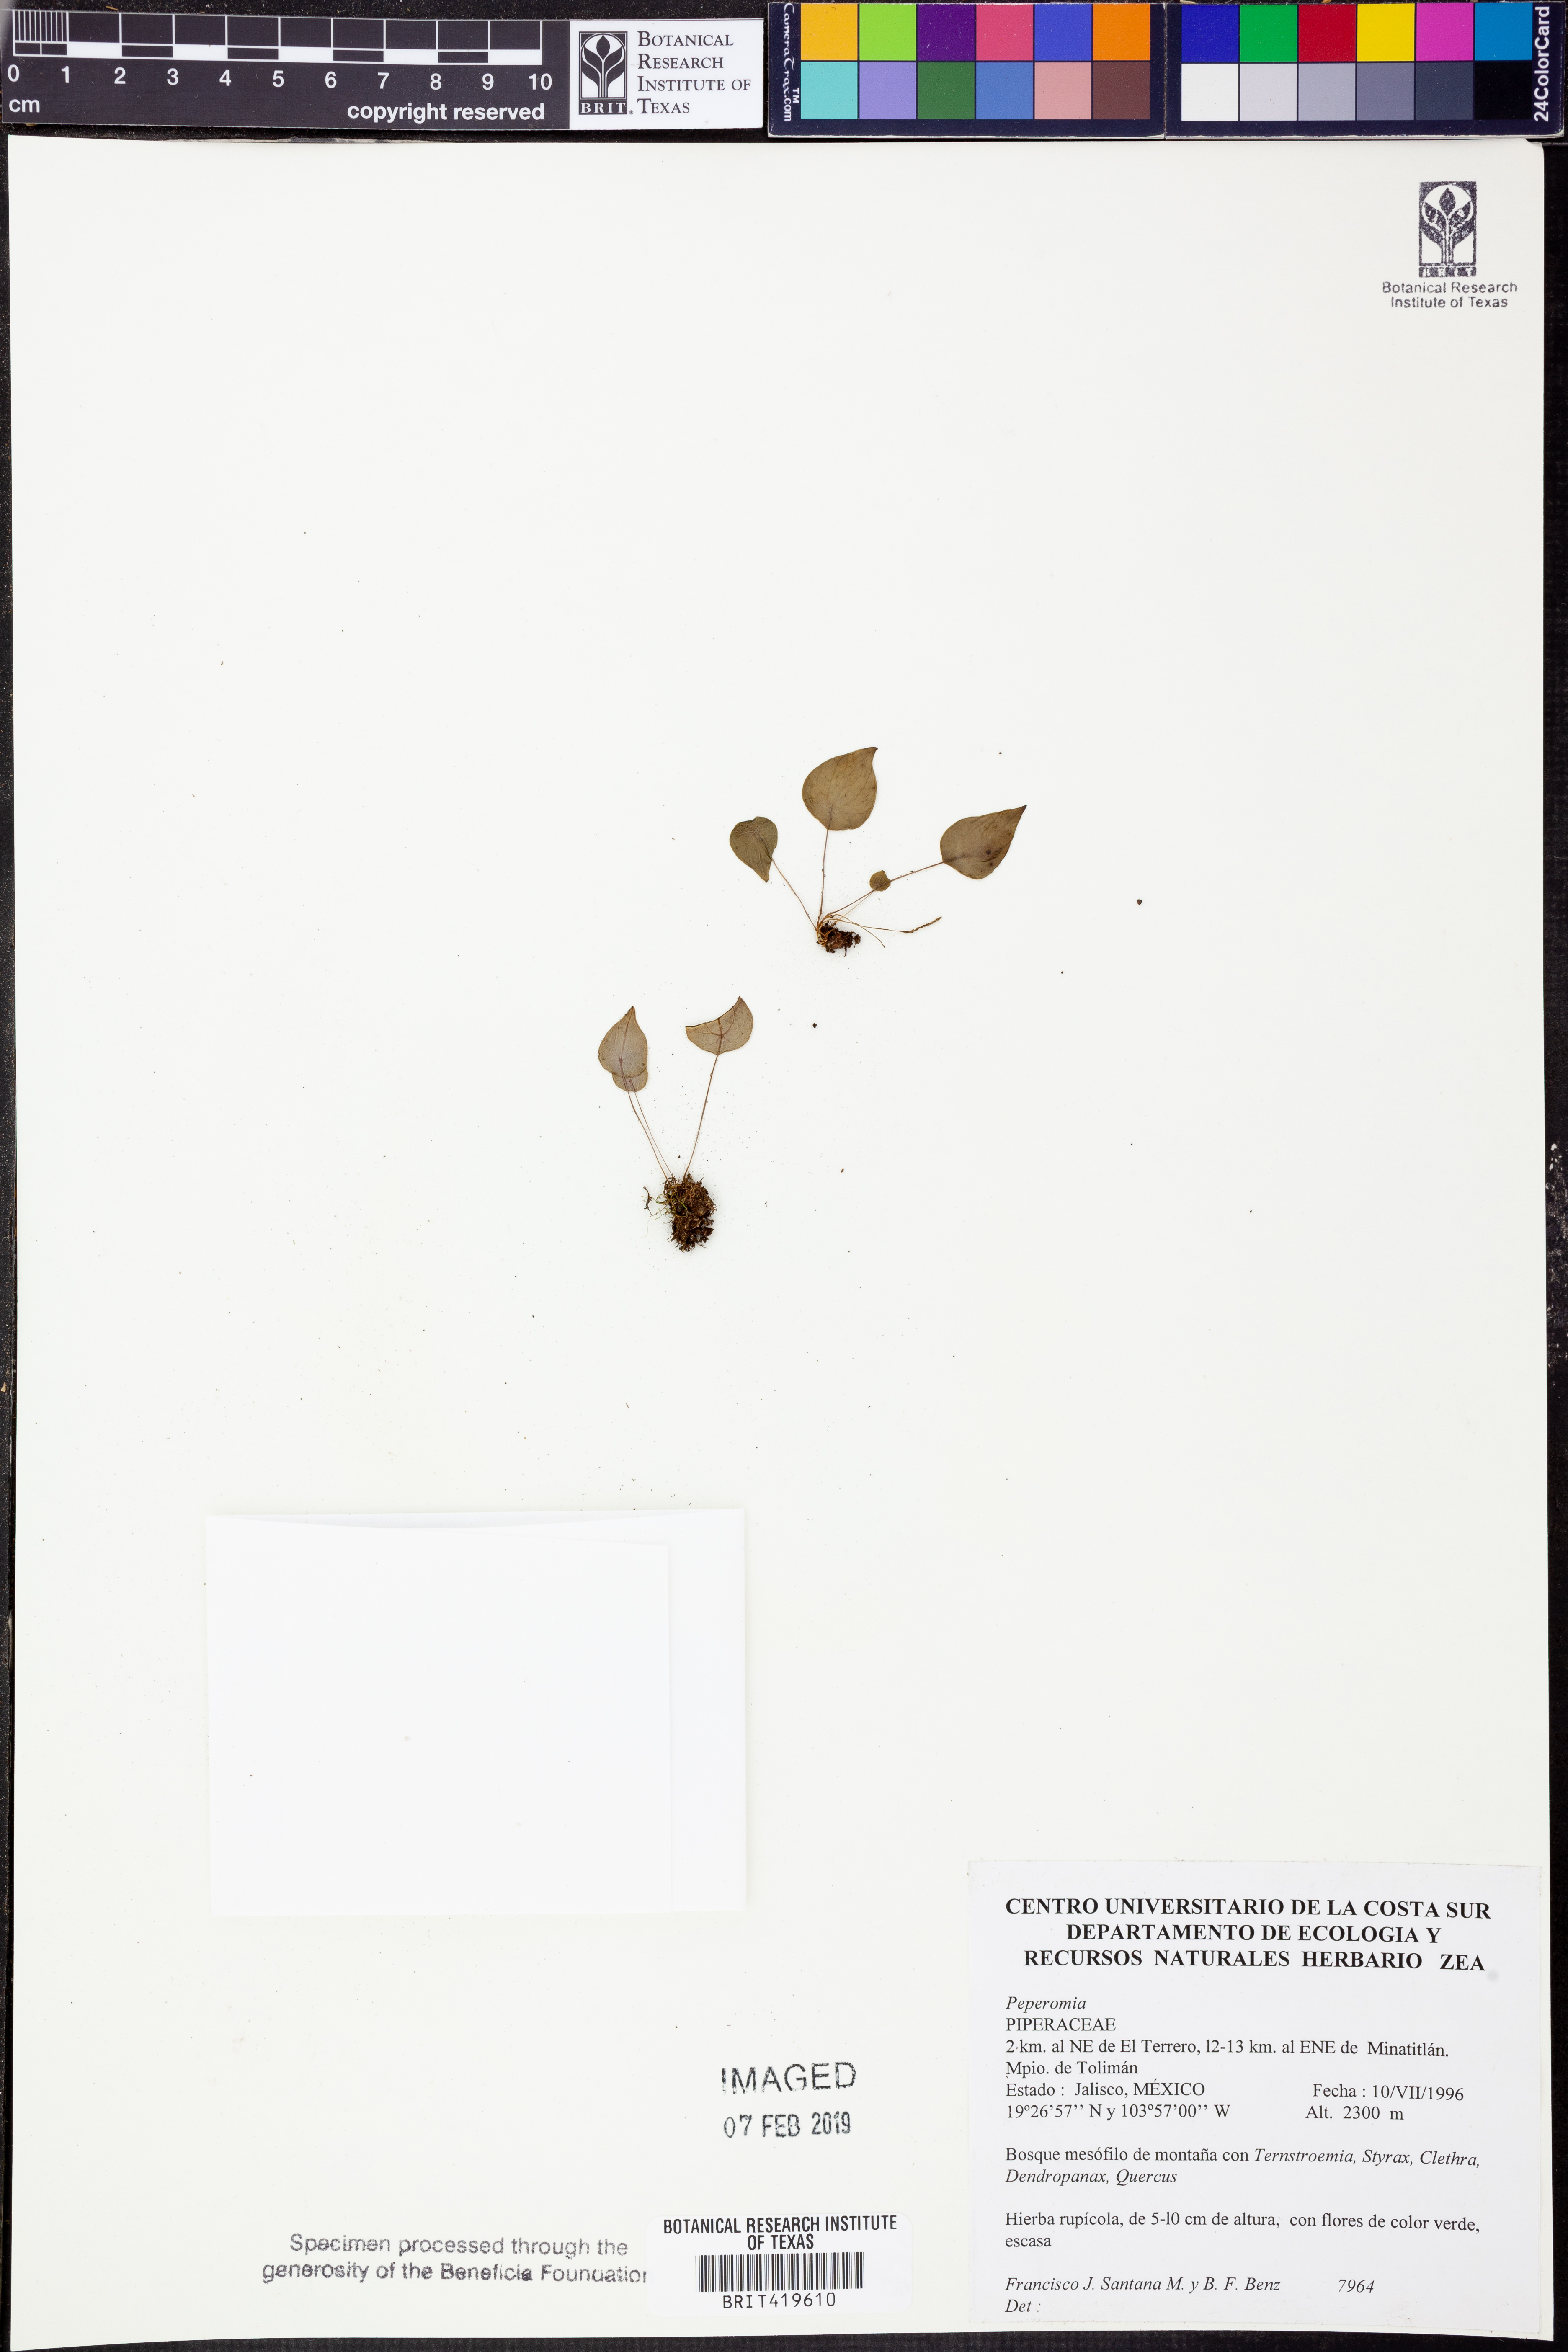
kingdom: Plantae
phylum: Tracheophyta
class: Magnoliopsida
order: Piperales
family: Piperaceae
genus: Peperomia
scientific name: Peperomia
